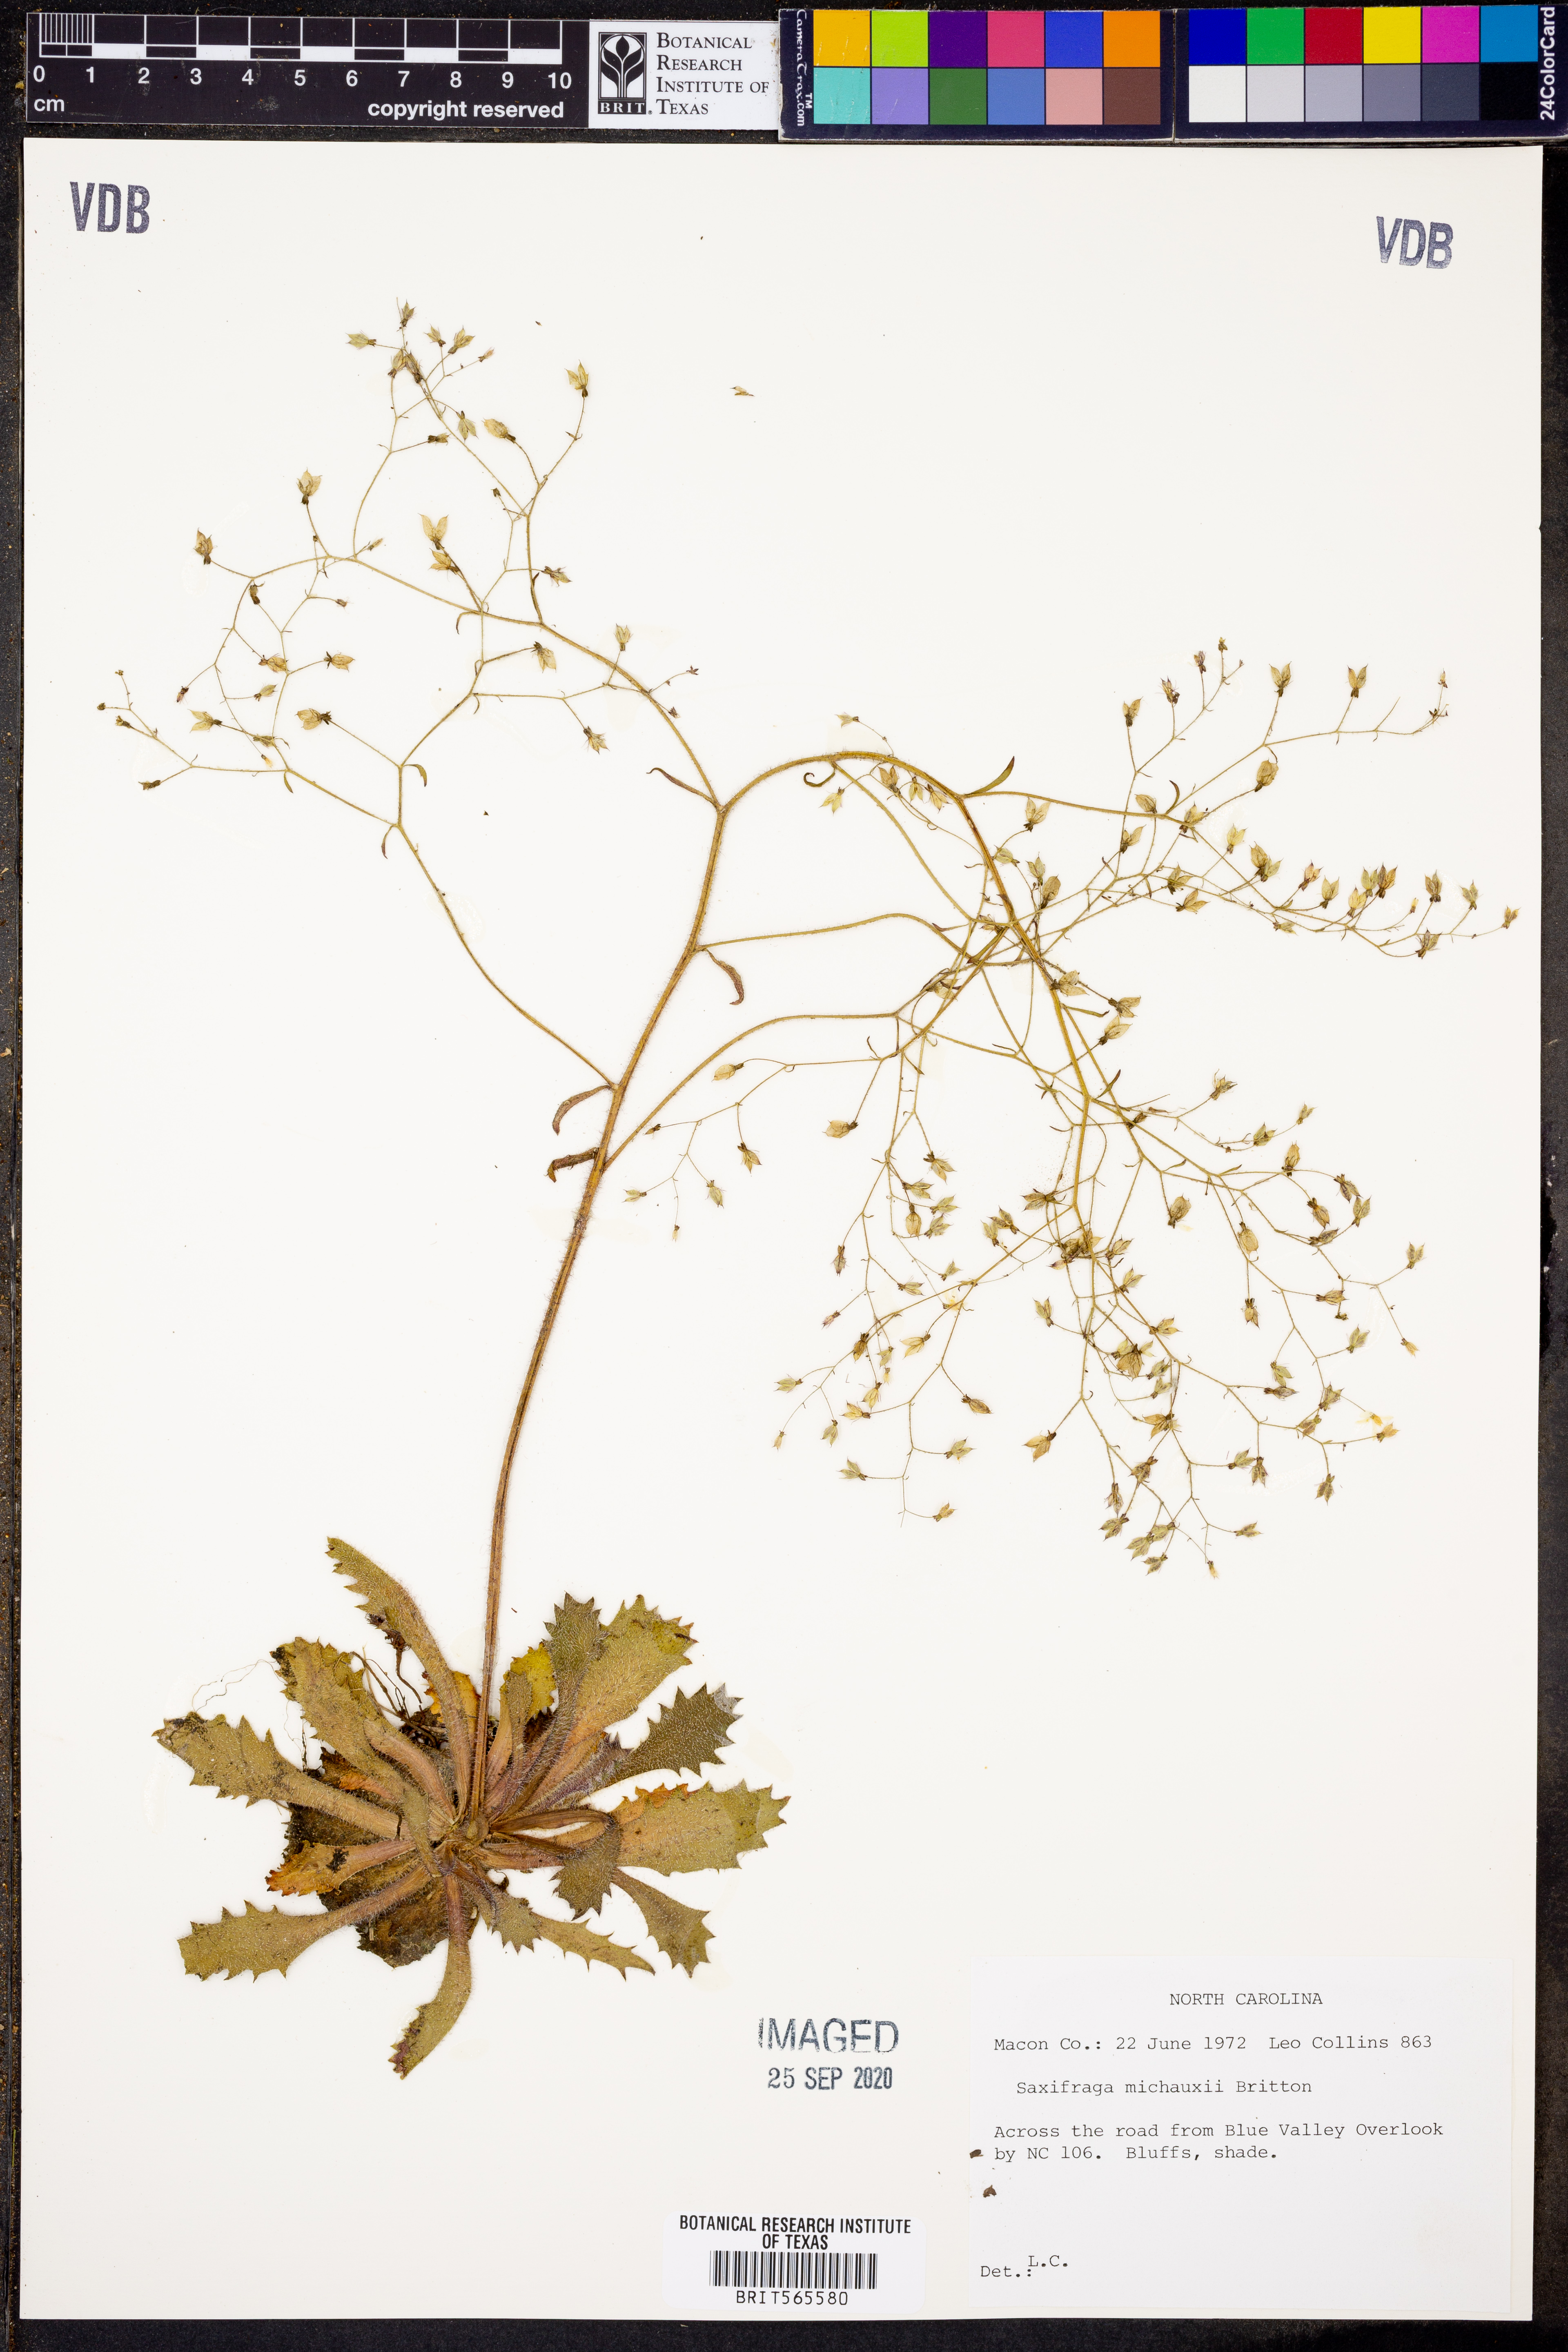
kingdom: Plantae
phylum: Tracheophyta
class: Magnoliopsida
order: Saxifragales
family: Saxifragaceae
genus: Micranthes
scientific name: Micranthes petiolaris
